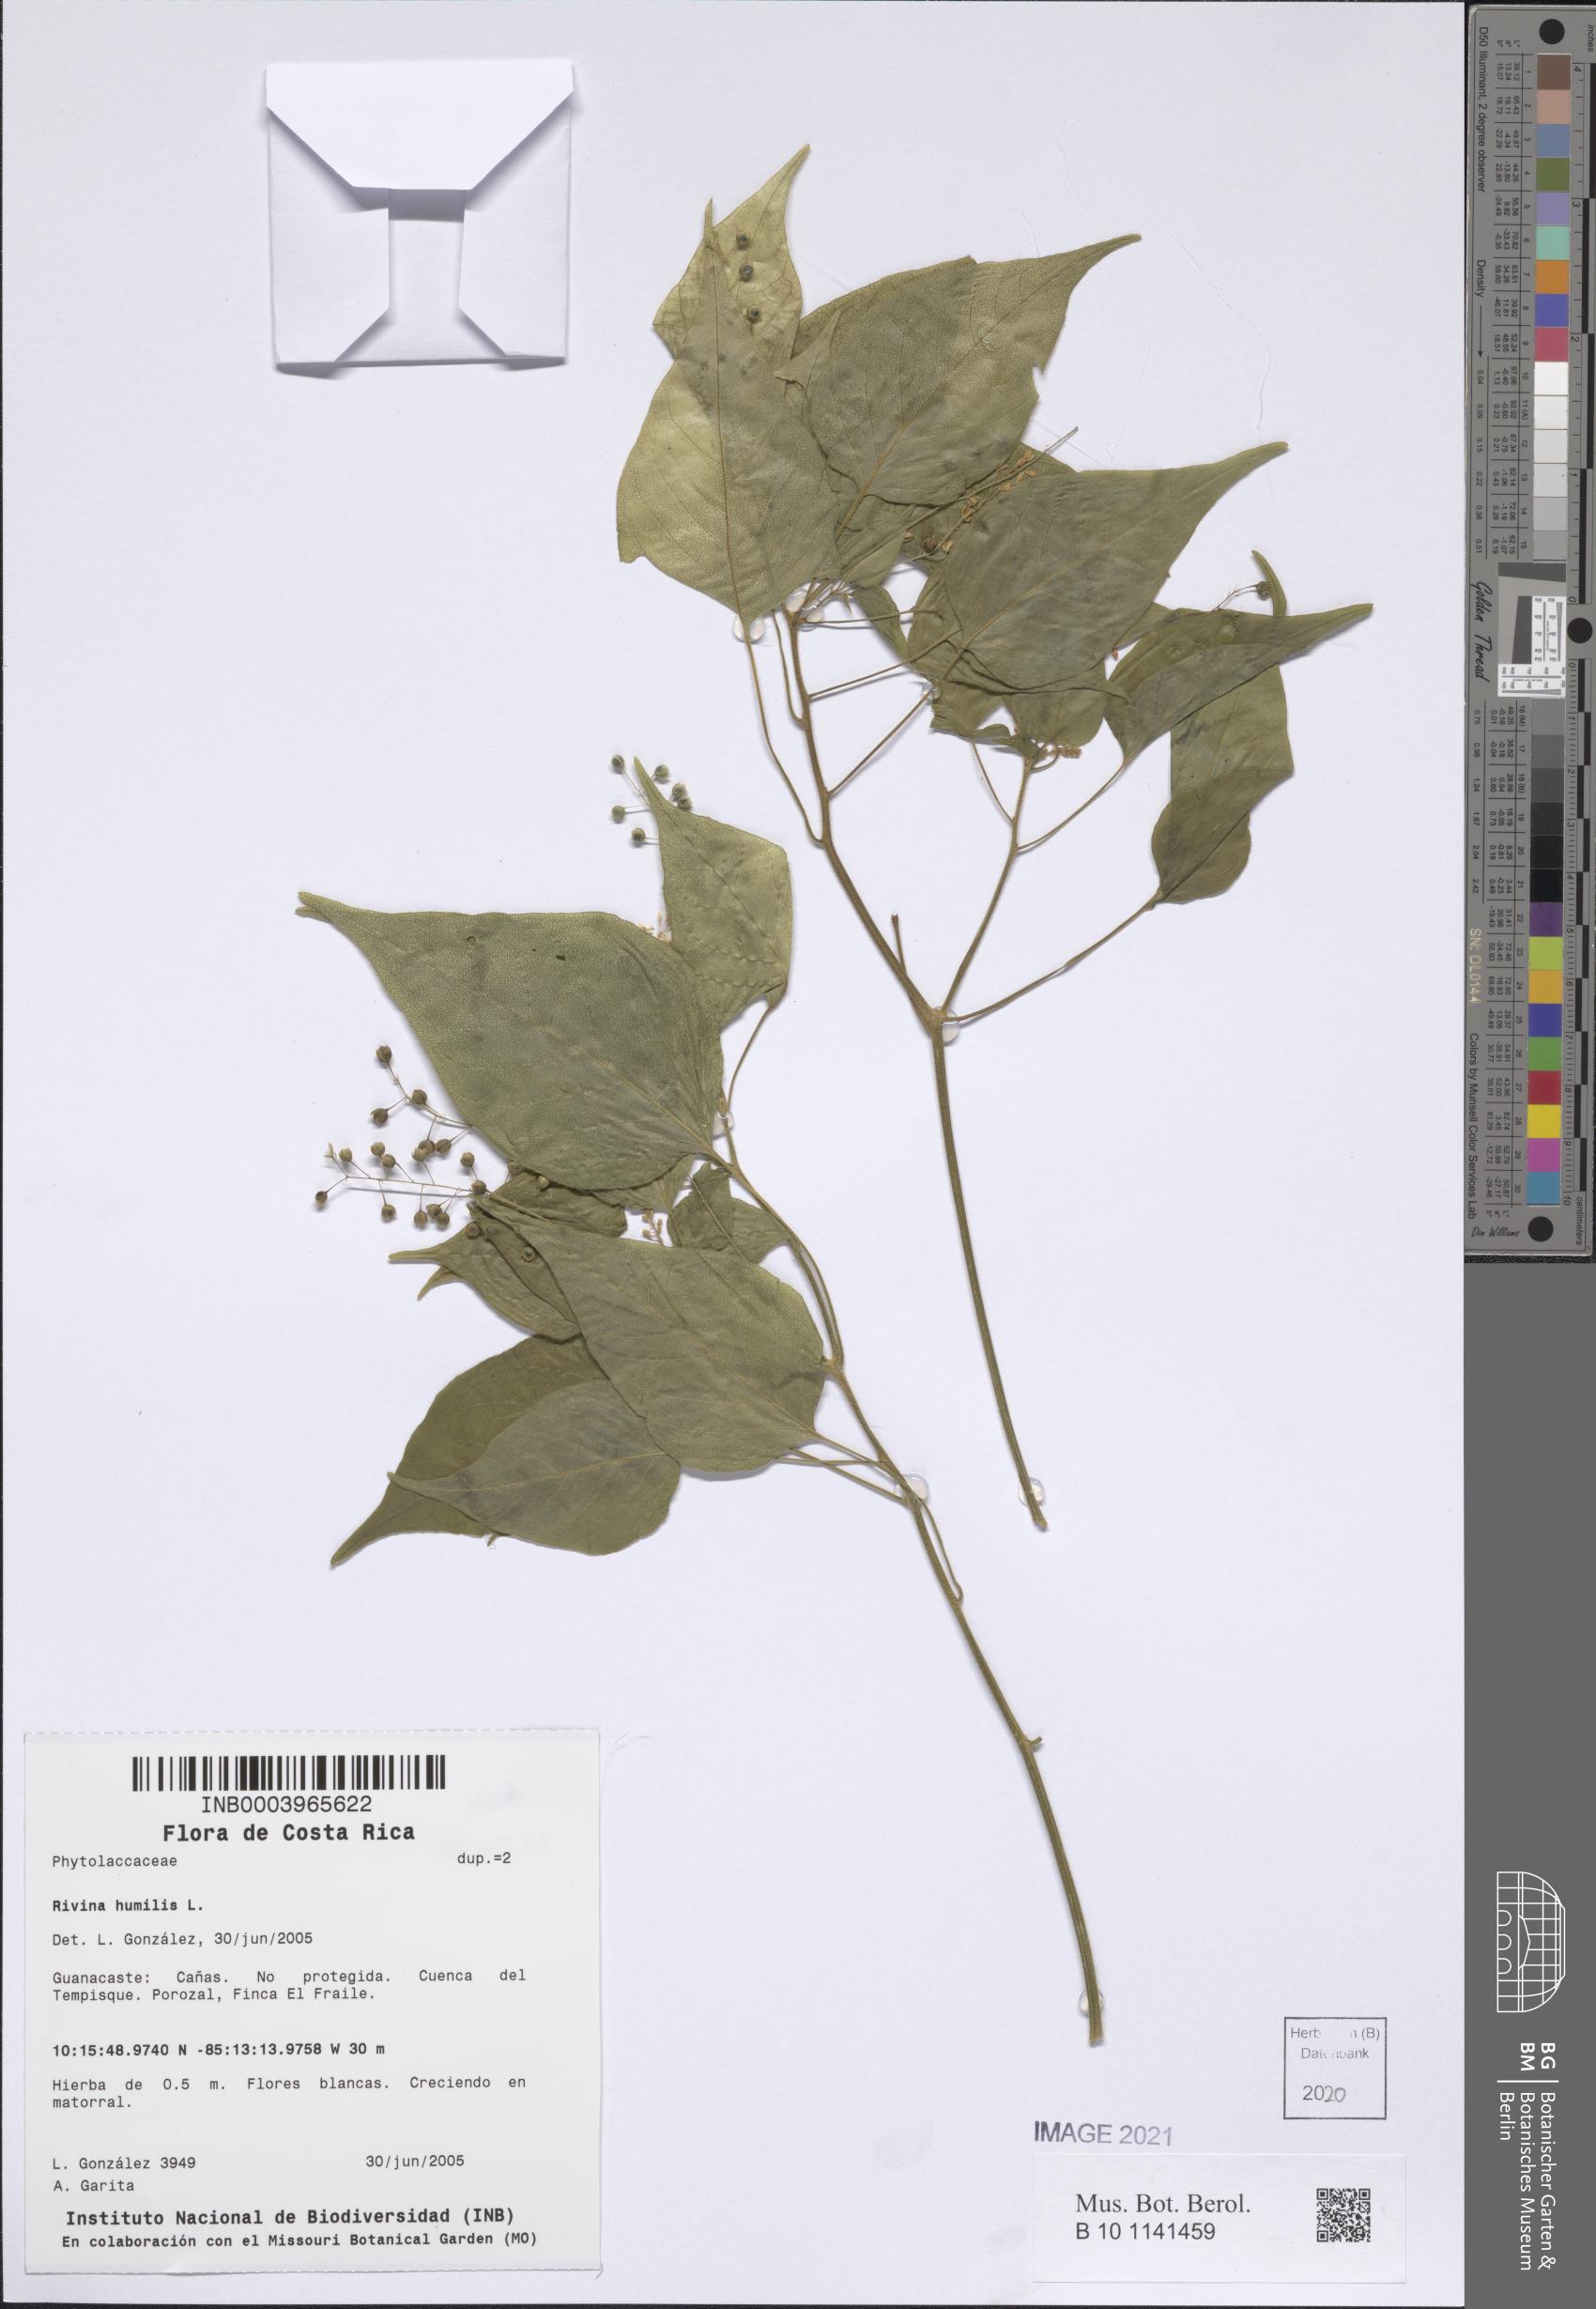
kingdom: Plantae
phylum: Tracheophyta
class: Magnoliopsida
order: Caryophyllales
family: Phytolaccaceae
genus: Rivina
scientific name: Rivina humilis
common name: Rougeplant
